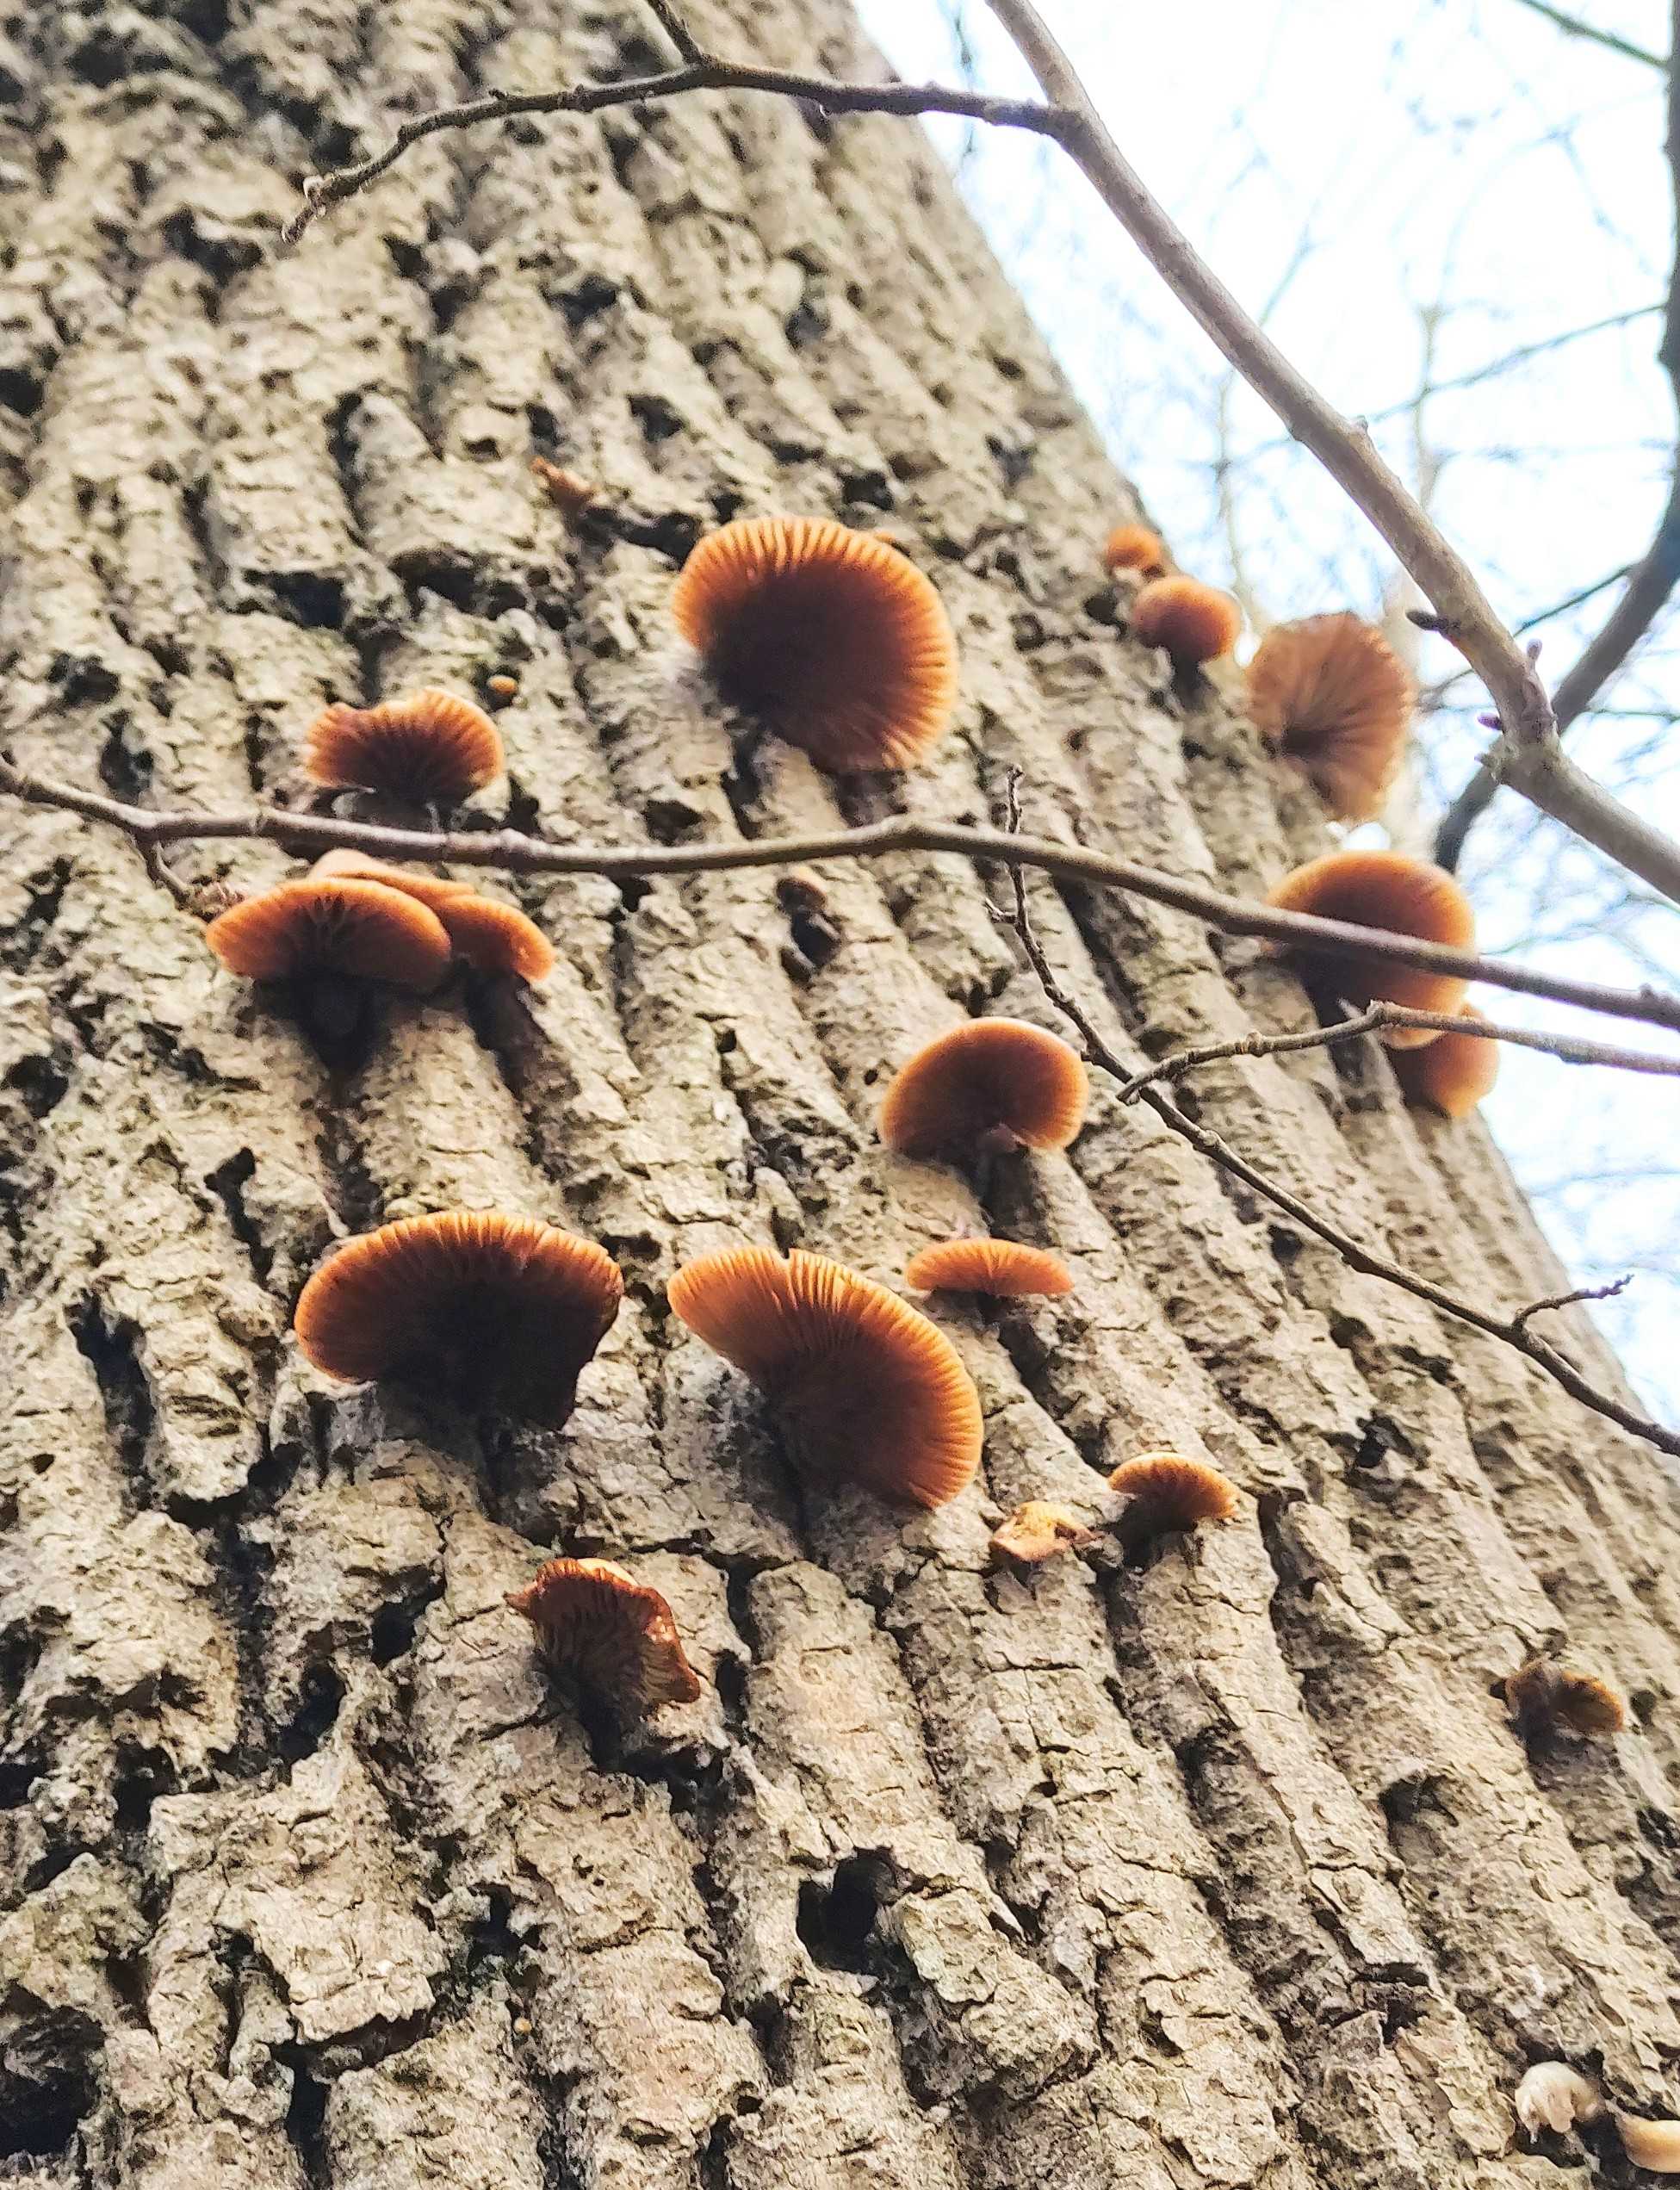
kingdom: Fungi
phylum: Basidiomycota
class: Agaricomycetes
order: Agaricales
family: Crepidotaceae
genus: Crepidotus
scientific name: Crepidotus
